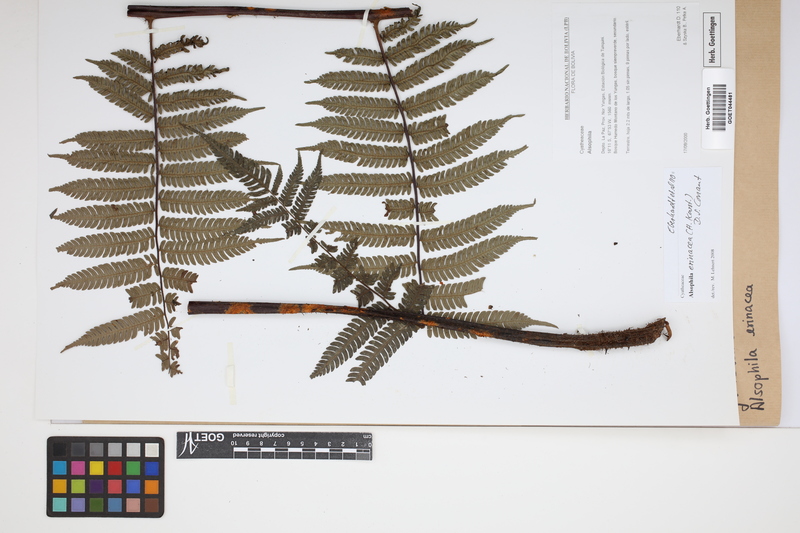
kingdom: Plantae
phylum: Tracheophyta
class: Polypodiopsida
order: Cyatheales
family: Cyatheaceae
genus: Alsophila
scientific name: Alsophila erinacea
